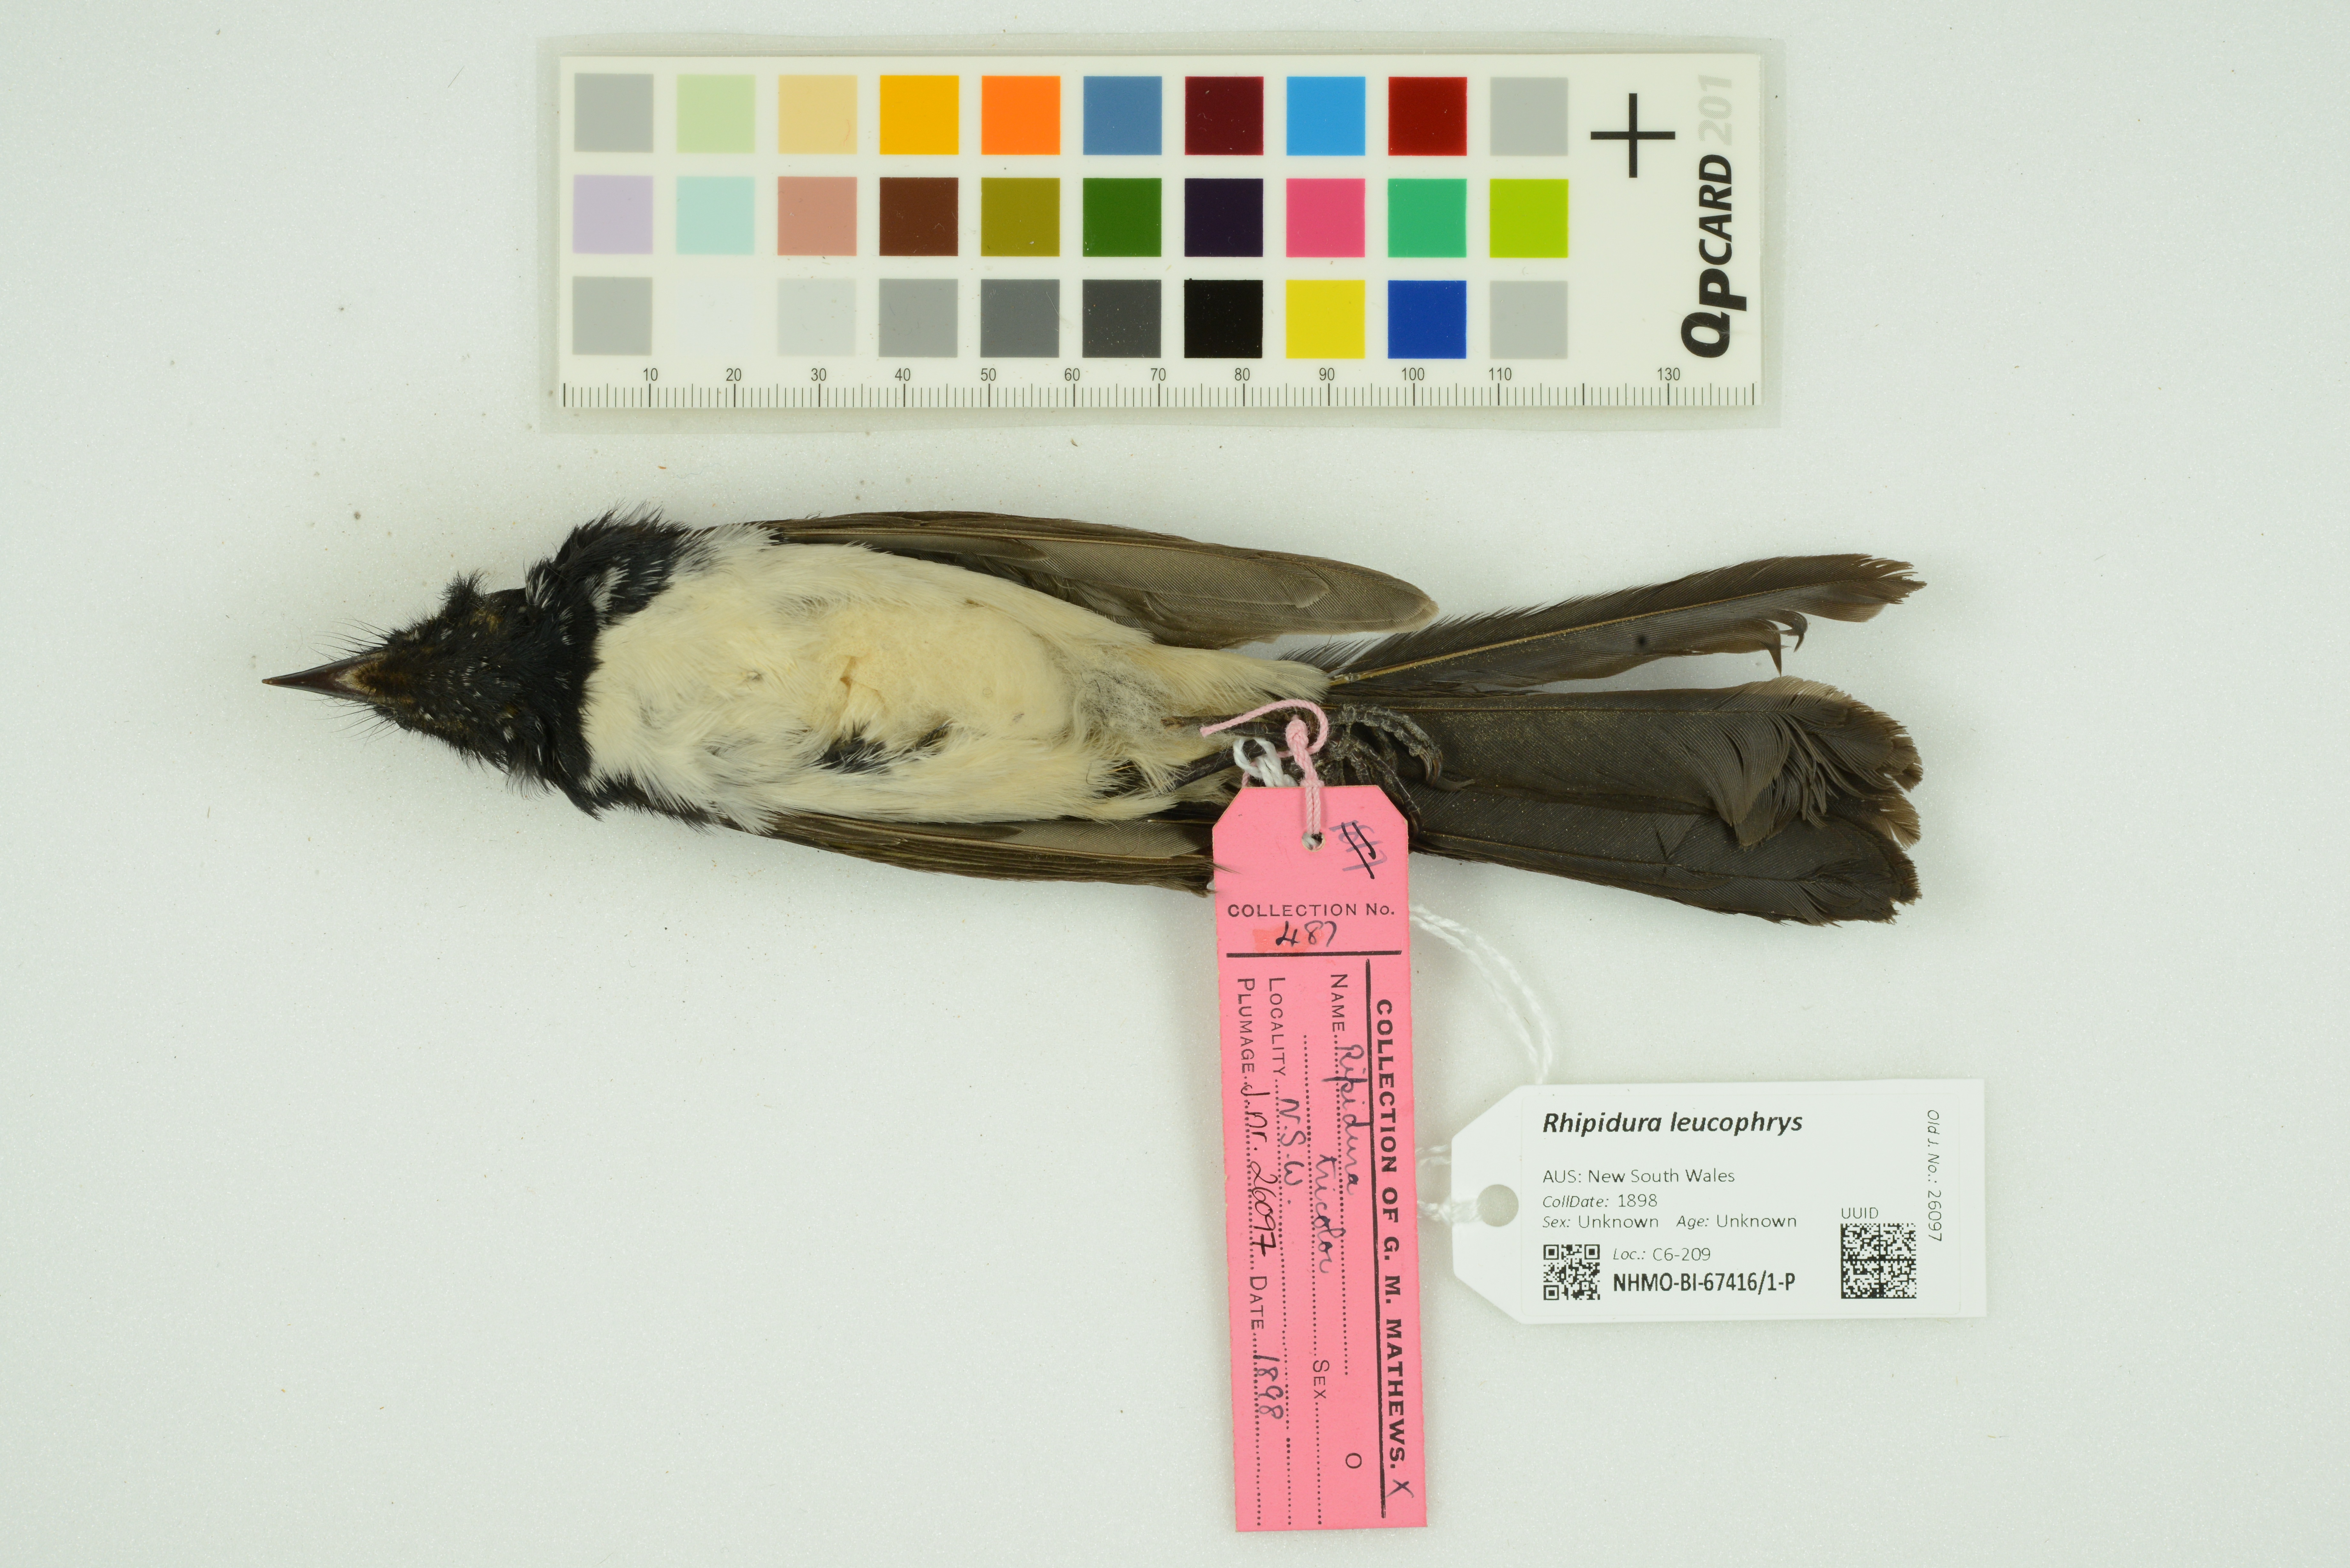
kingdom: Animalia
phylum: Chordata
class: Aves
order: Passeriformes
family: Rhipiduridae
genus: Rhipidura
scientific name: Rhipidura leucophrys
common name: Willie wagtail
